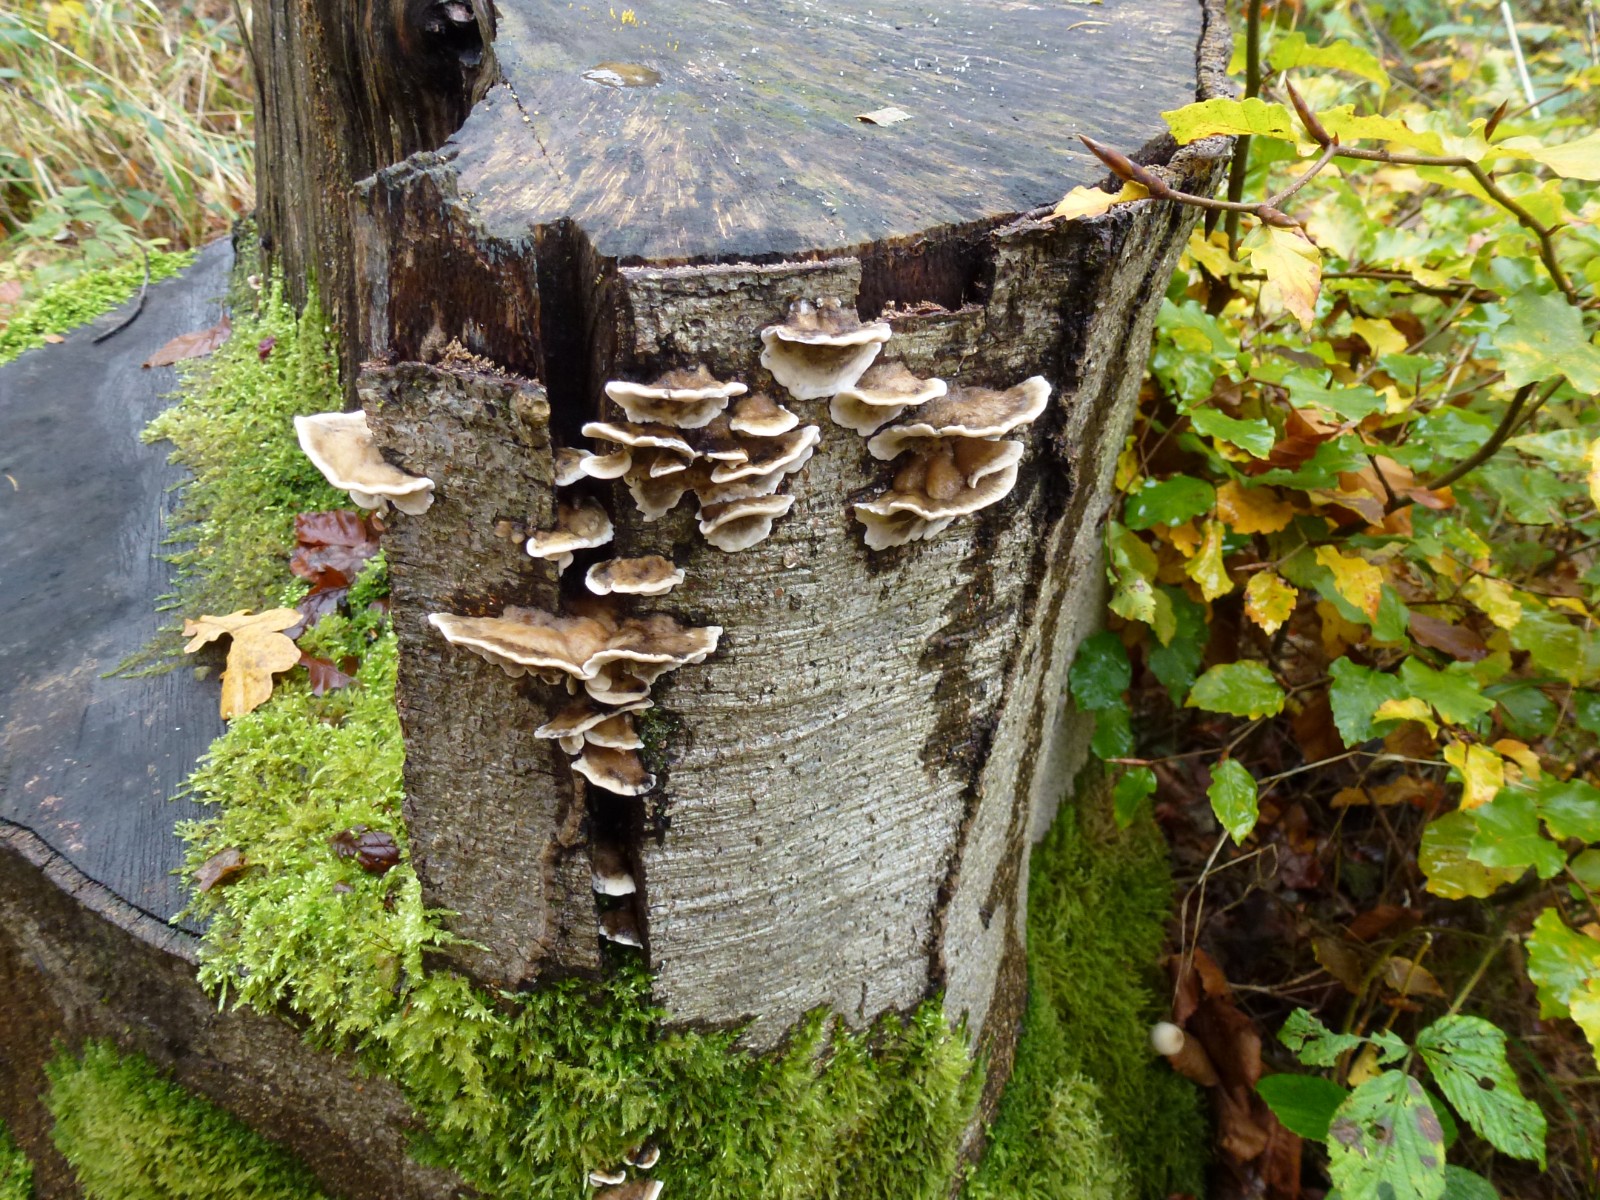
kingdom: Fungi
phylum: Basidiomycota
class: Agaricomycetes
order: Polyporales
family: Phanerochaetaceae
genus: Bjerkandera
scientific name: Bjerkandera adusta
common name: sveden sodporesvamp
